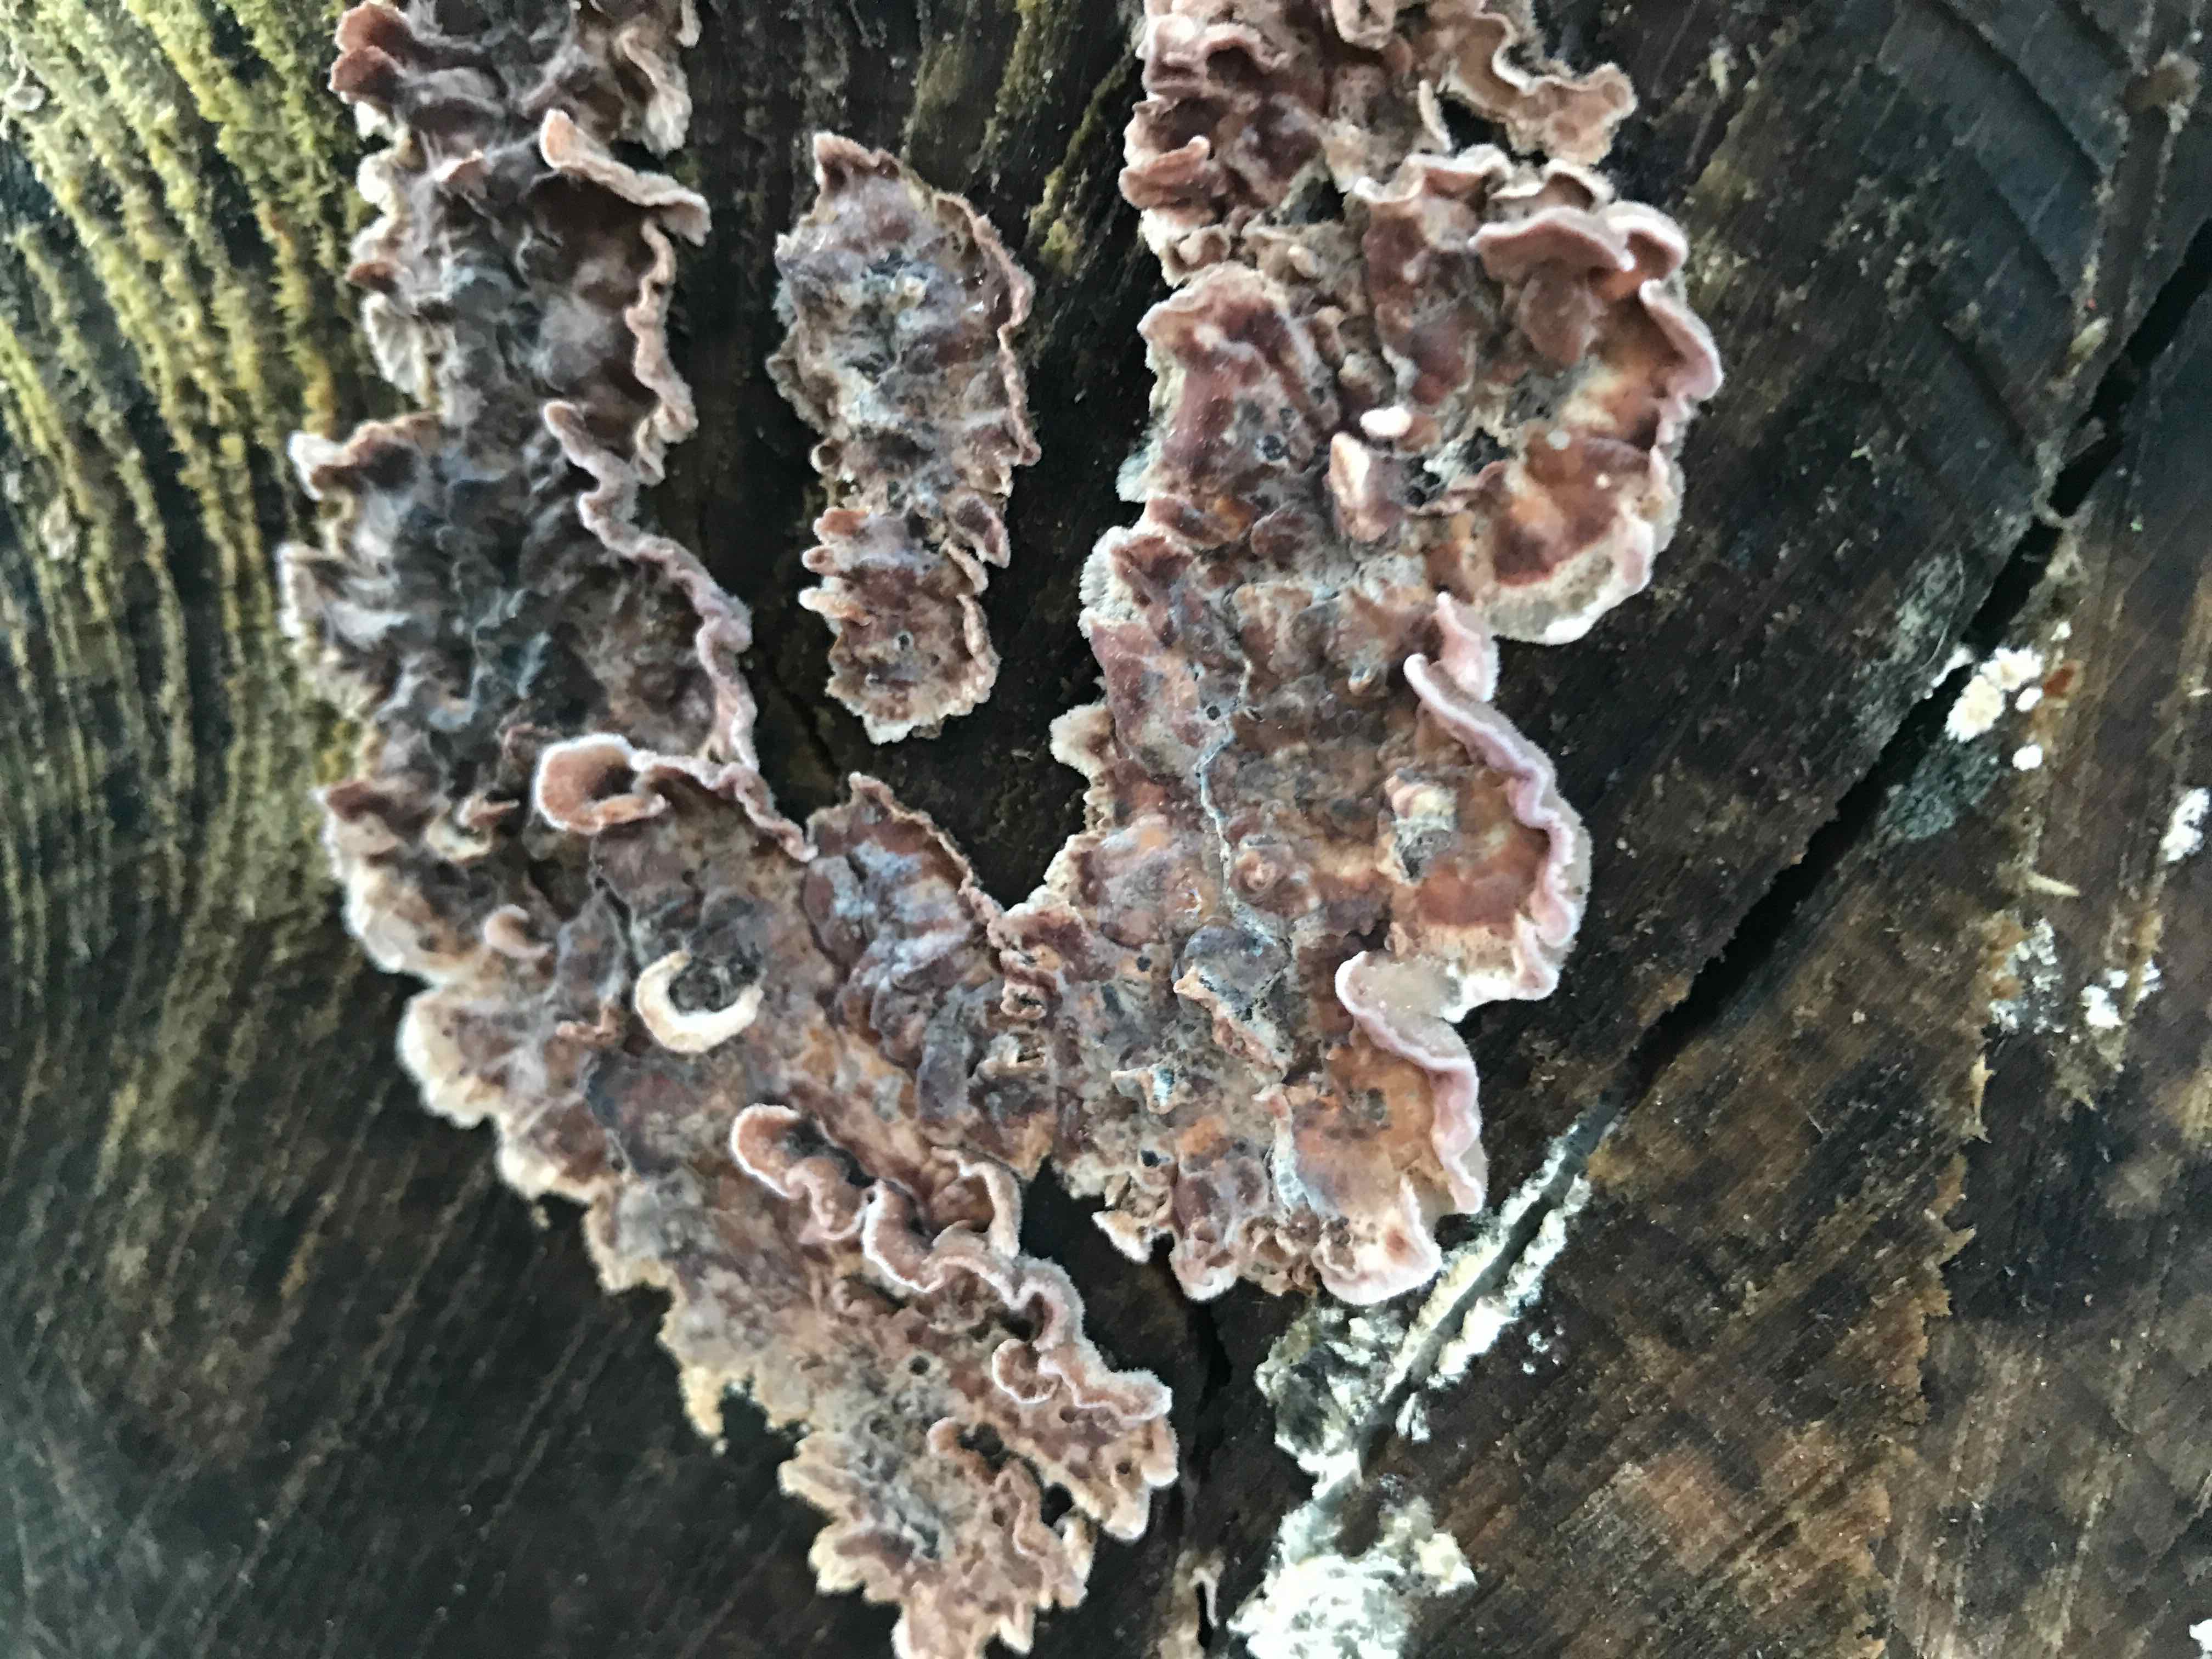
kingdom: Fungi
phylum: Basidiomycota
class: Agaricomycetes
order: Agaricales
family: Cyphellaceae
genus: Chondrostereum
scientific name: Chondrostereum purpureum
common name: purpurlædersvamp
